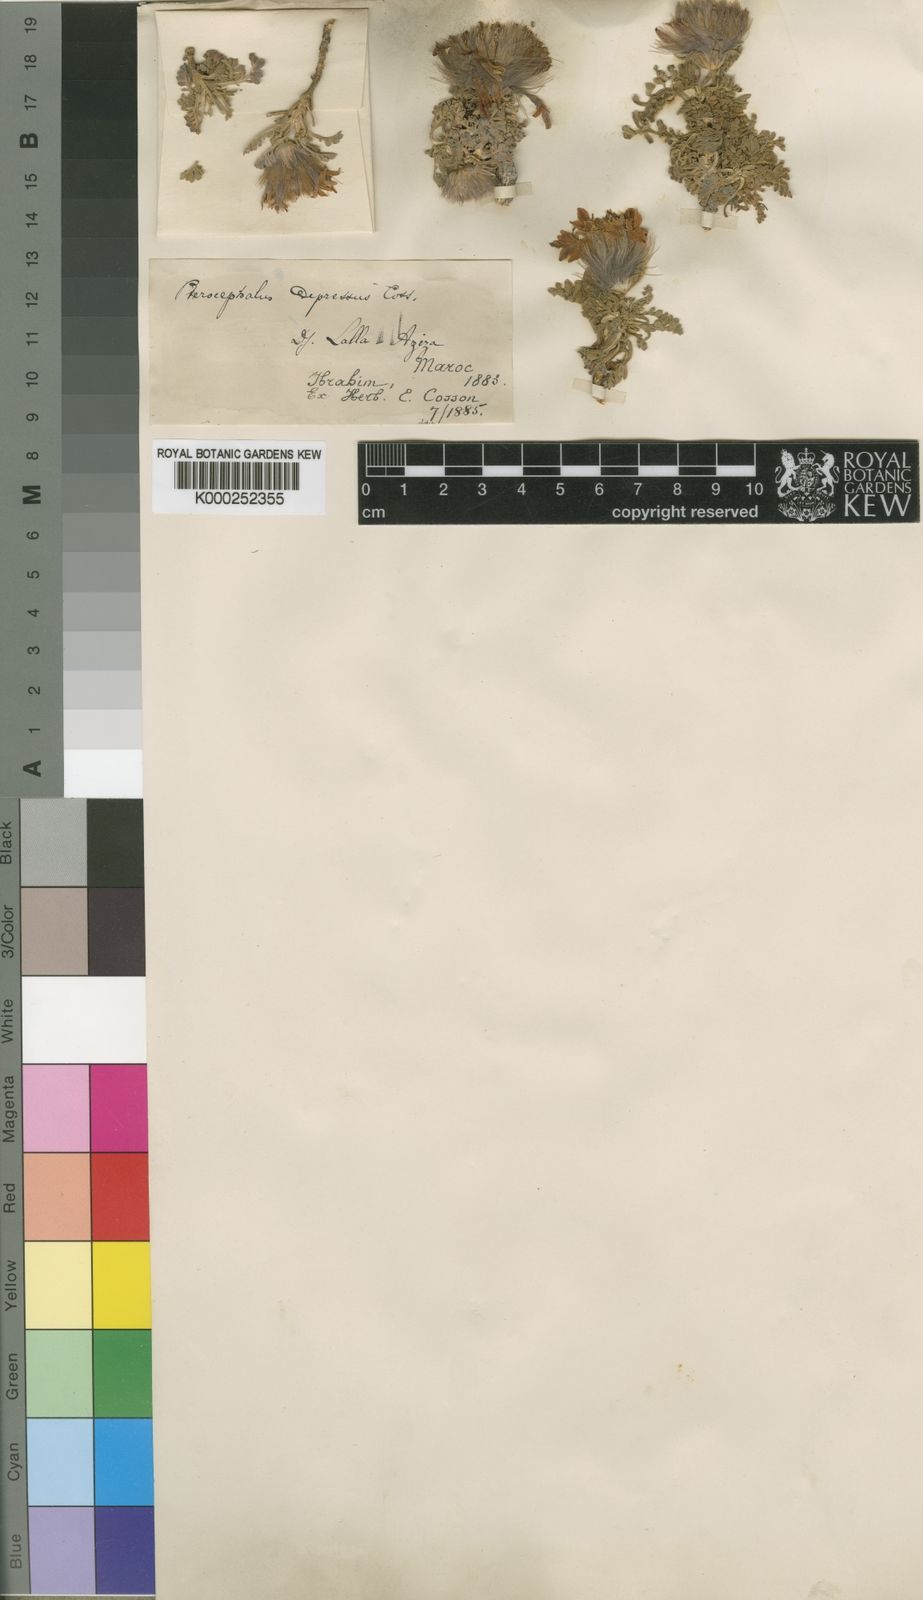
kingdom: Plantae
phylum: Tracheophyta
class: Magnoliopsida
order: Dipsacales
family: Caprifoliaceae
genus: Pterocephalus
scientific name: Pterocephalus depressus
